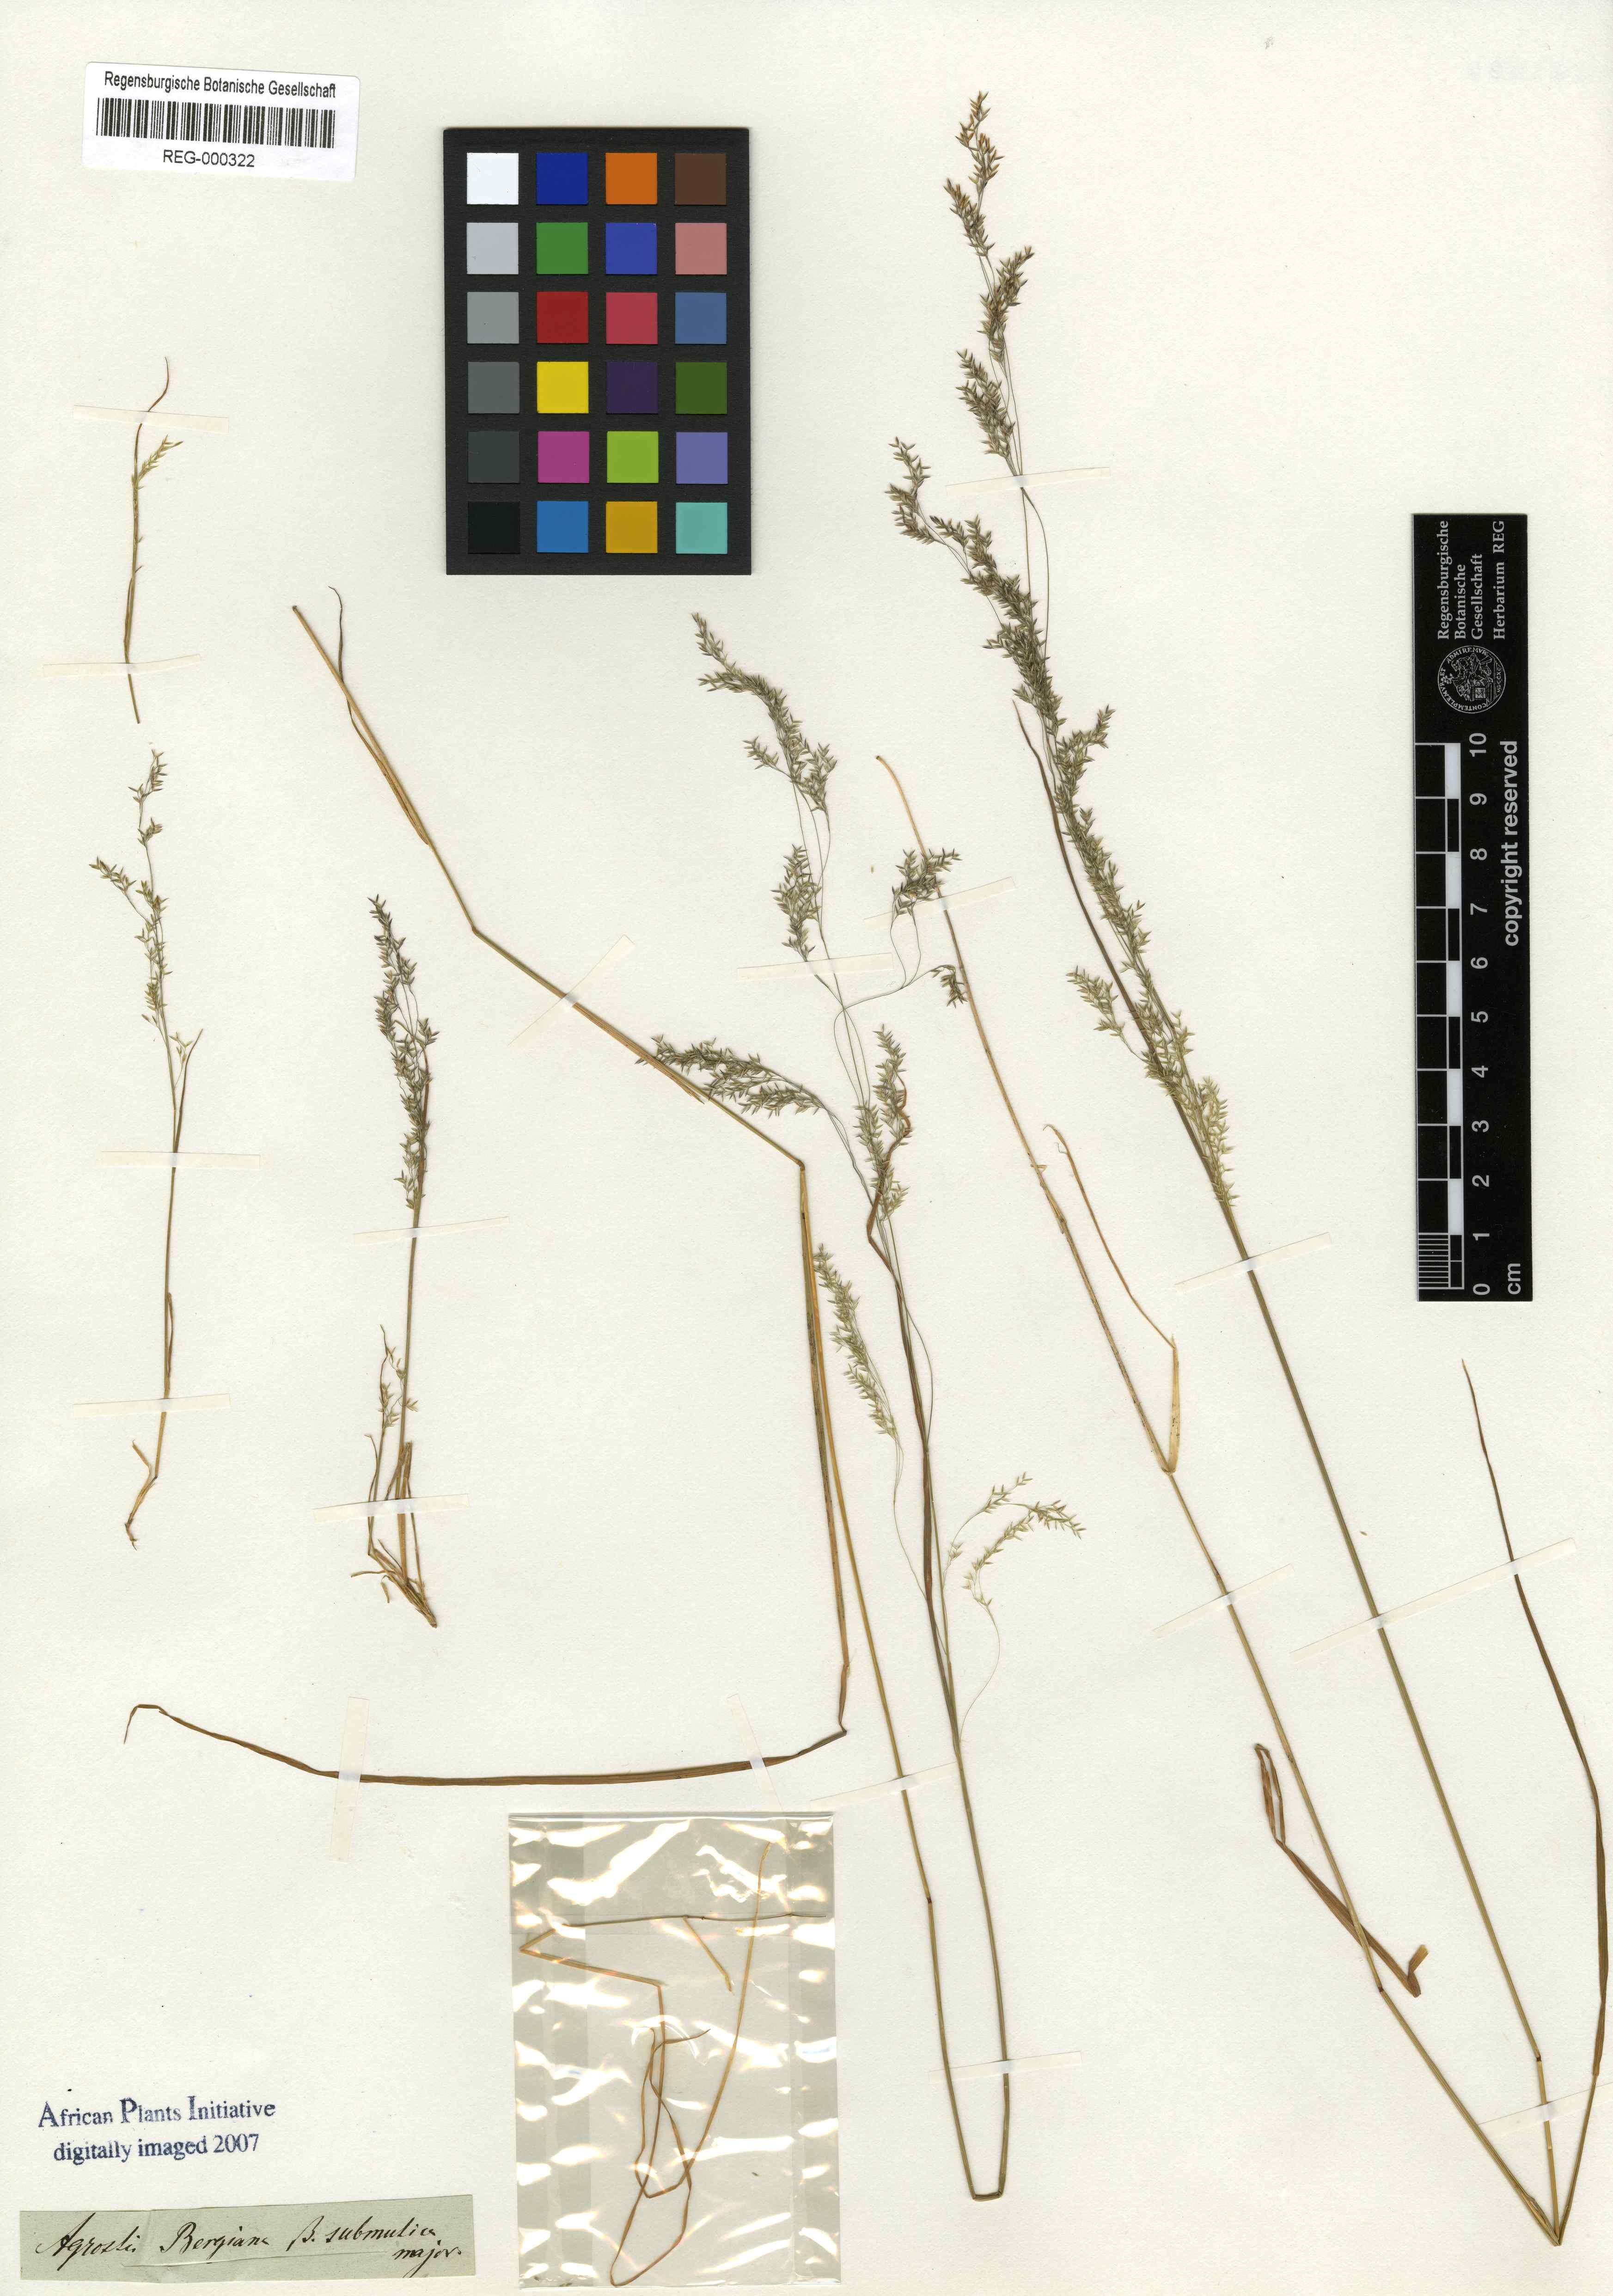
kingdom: Plantae
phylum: Tracheophyta
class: Liliopsida
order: Poales
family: Poaceae
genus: Agrostis
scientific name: Agrostis bergiana
